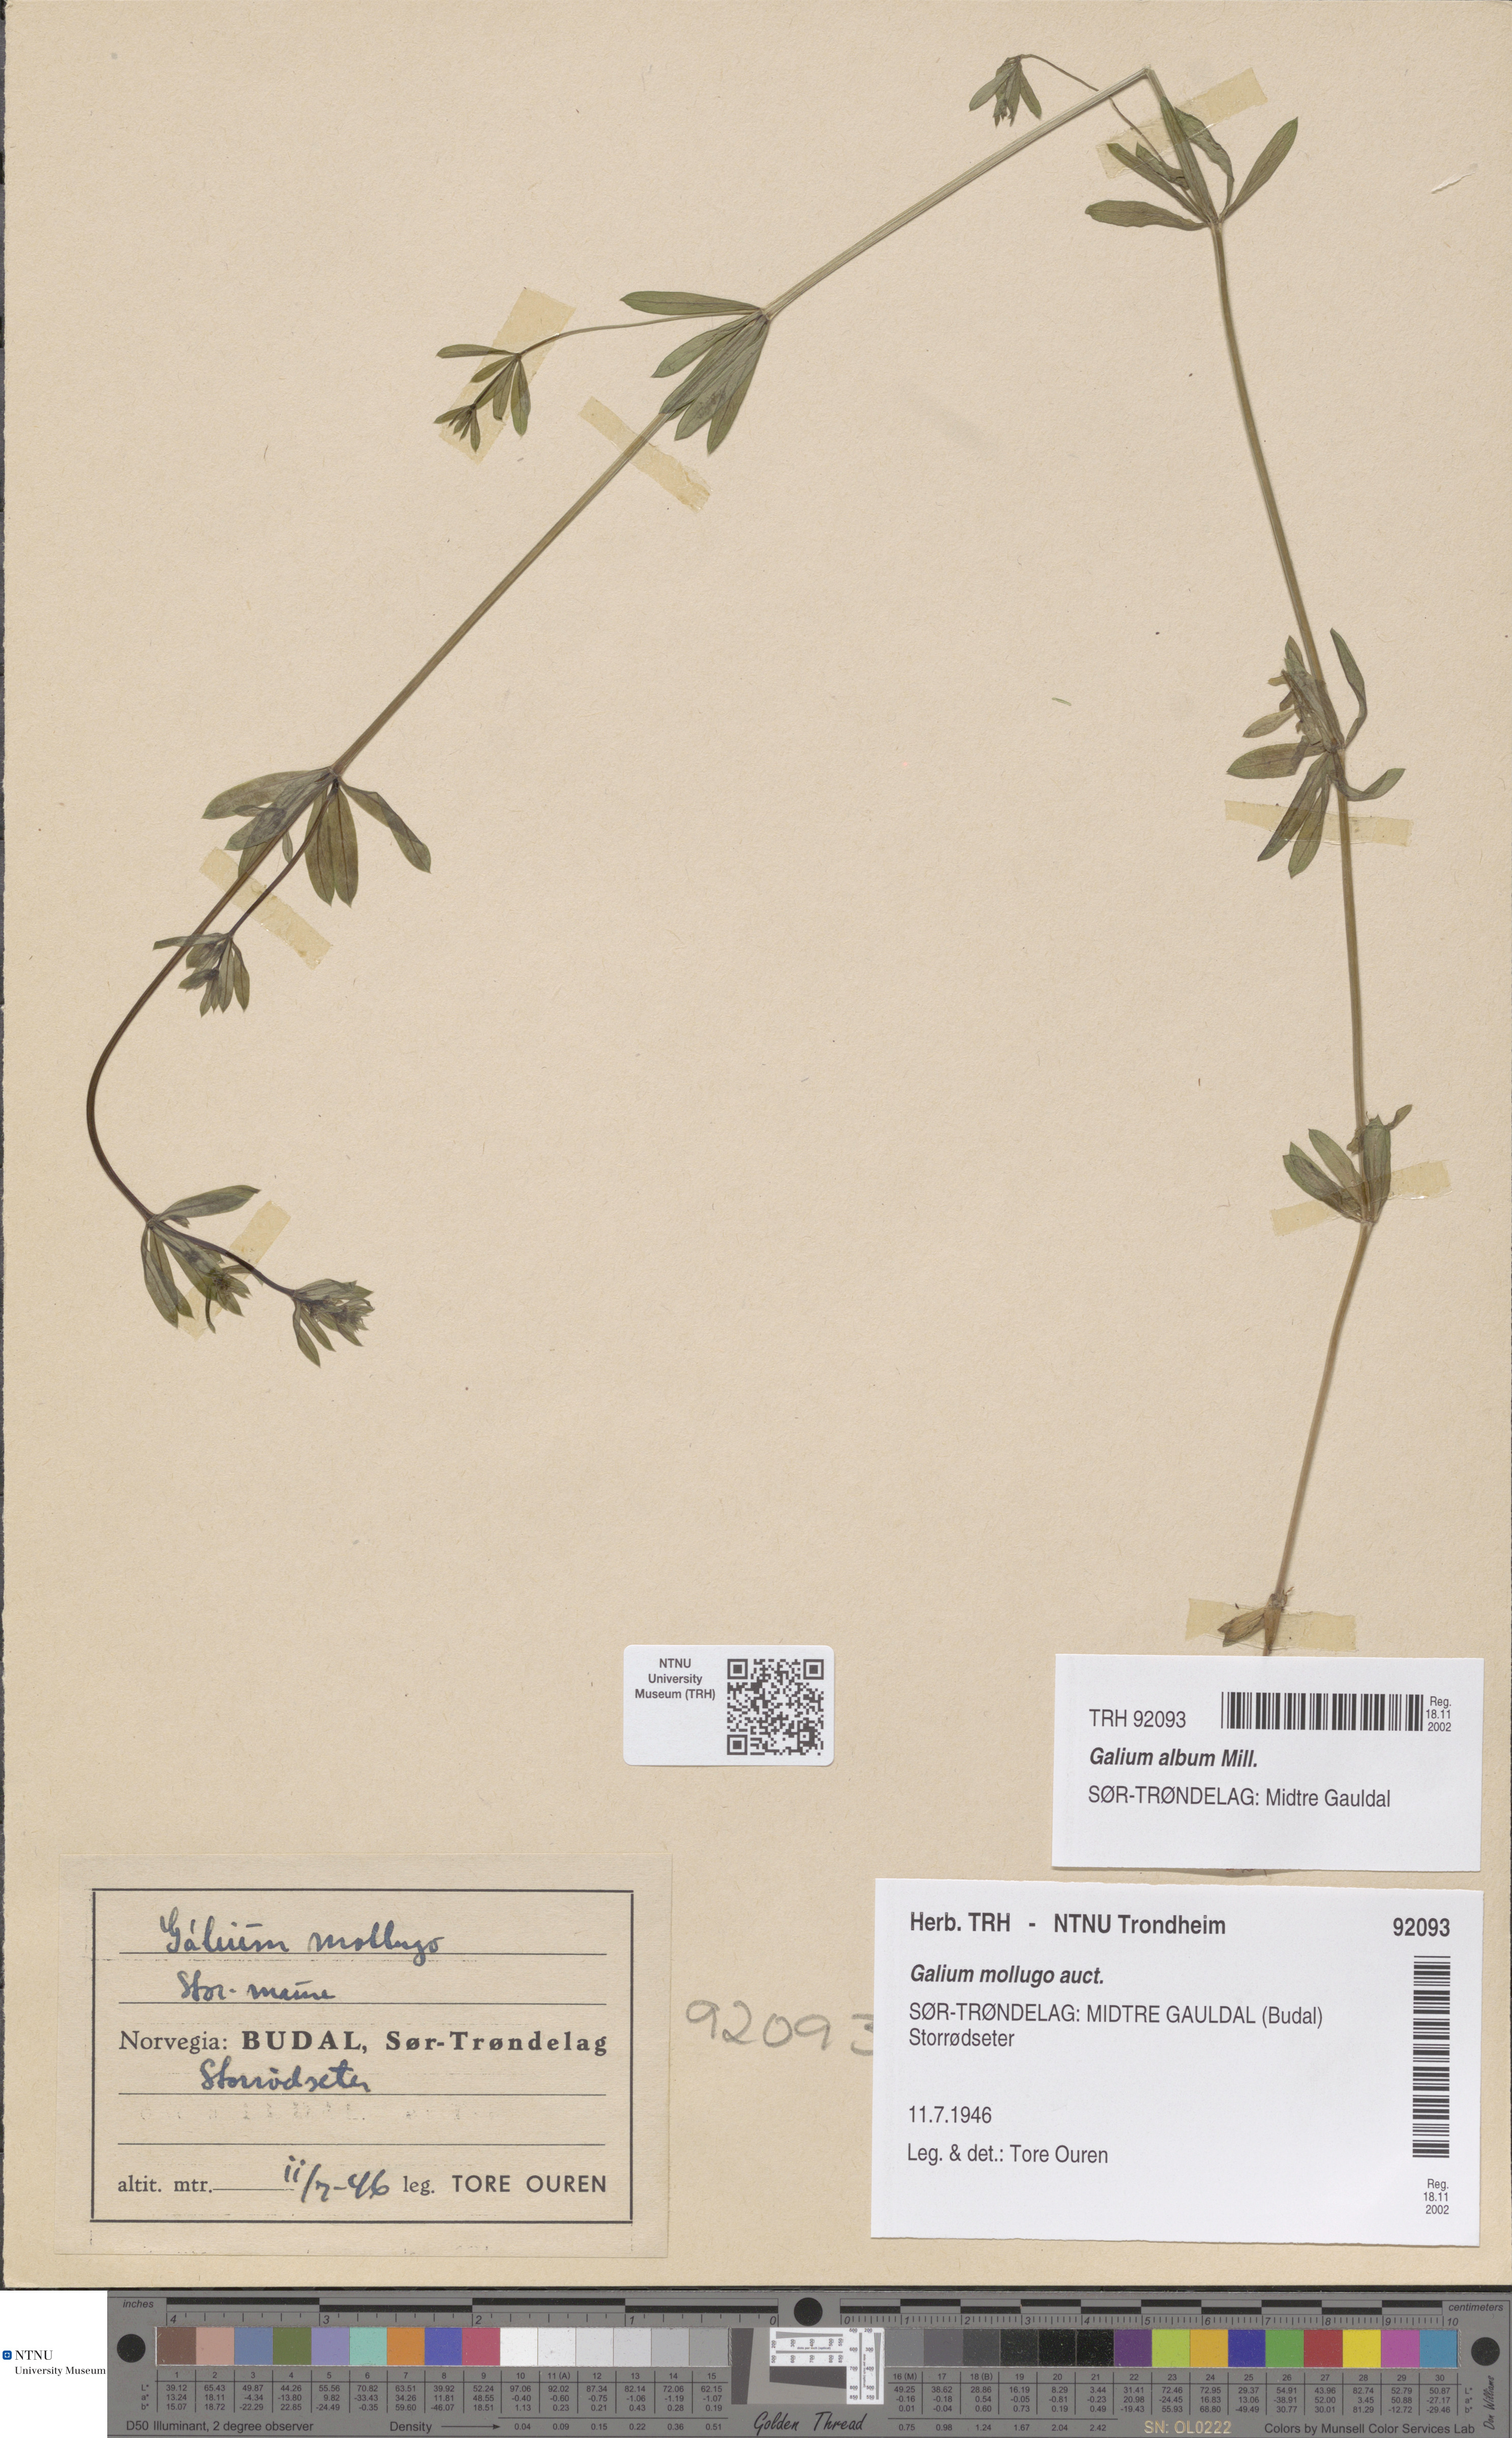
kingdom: Plantae
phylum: Tracheophyta
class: Magnoliopsida
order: Gentianales
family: Rubiaceae
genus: Galium
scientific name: Galium album
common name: White bedstraw
